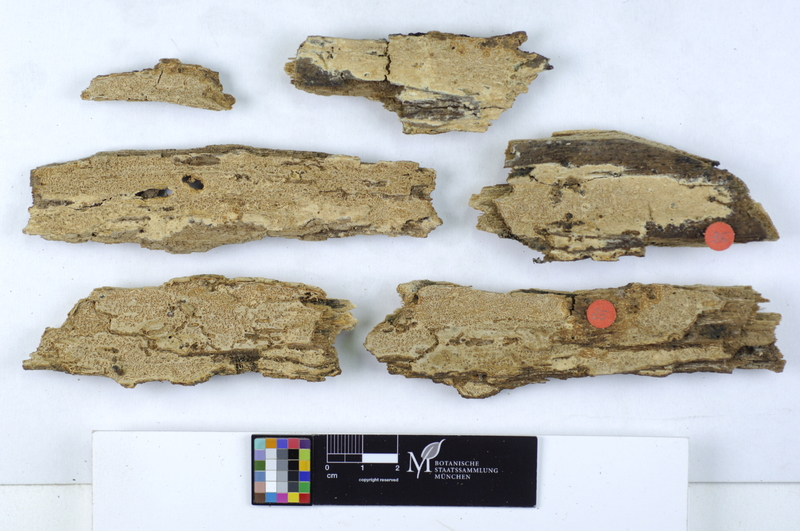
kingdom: Plantae
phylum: Tracheophyta
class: Magnoliopsida
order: Lamiales
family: Oleaceae
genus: Fraxinus
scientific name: Fraxinus
